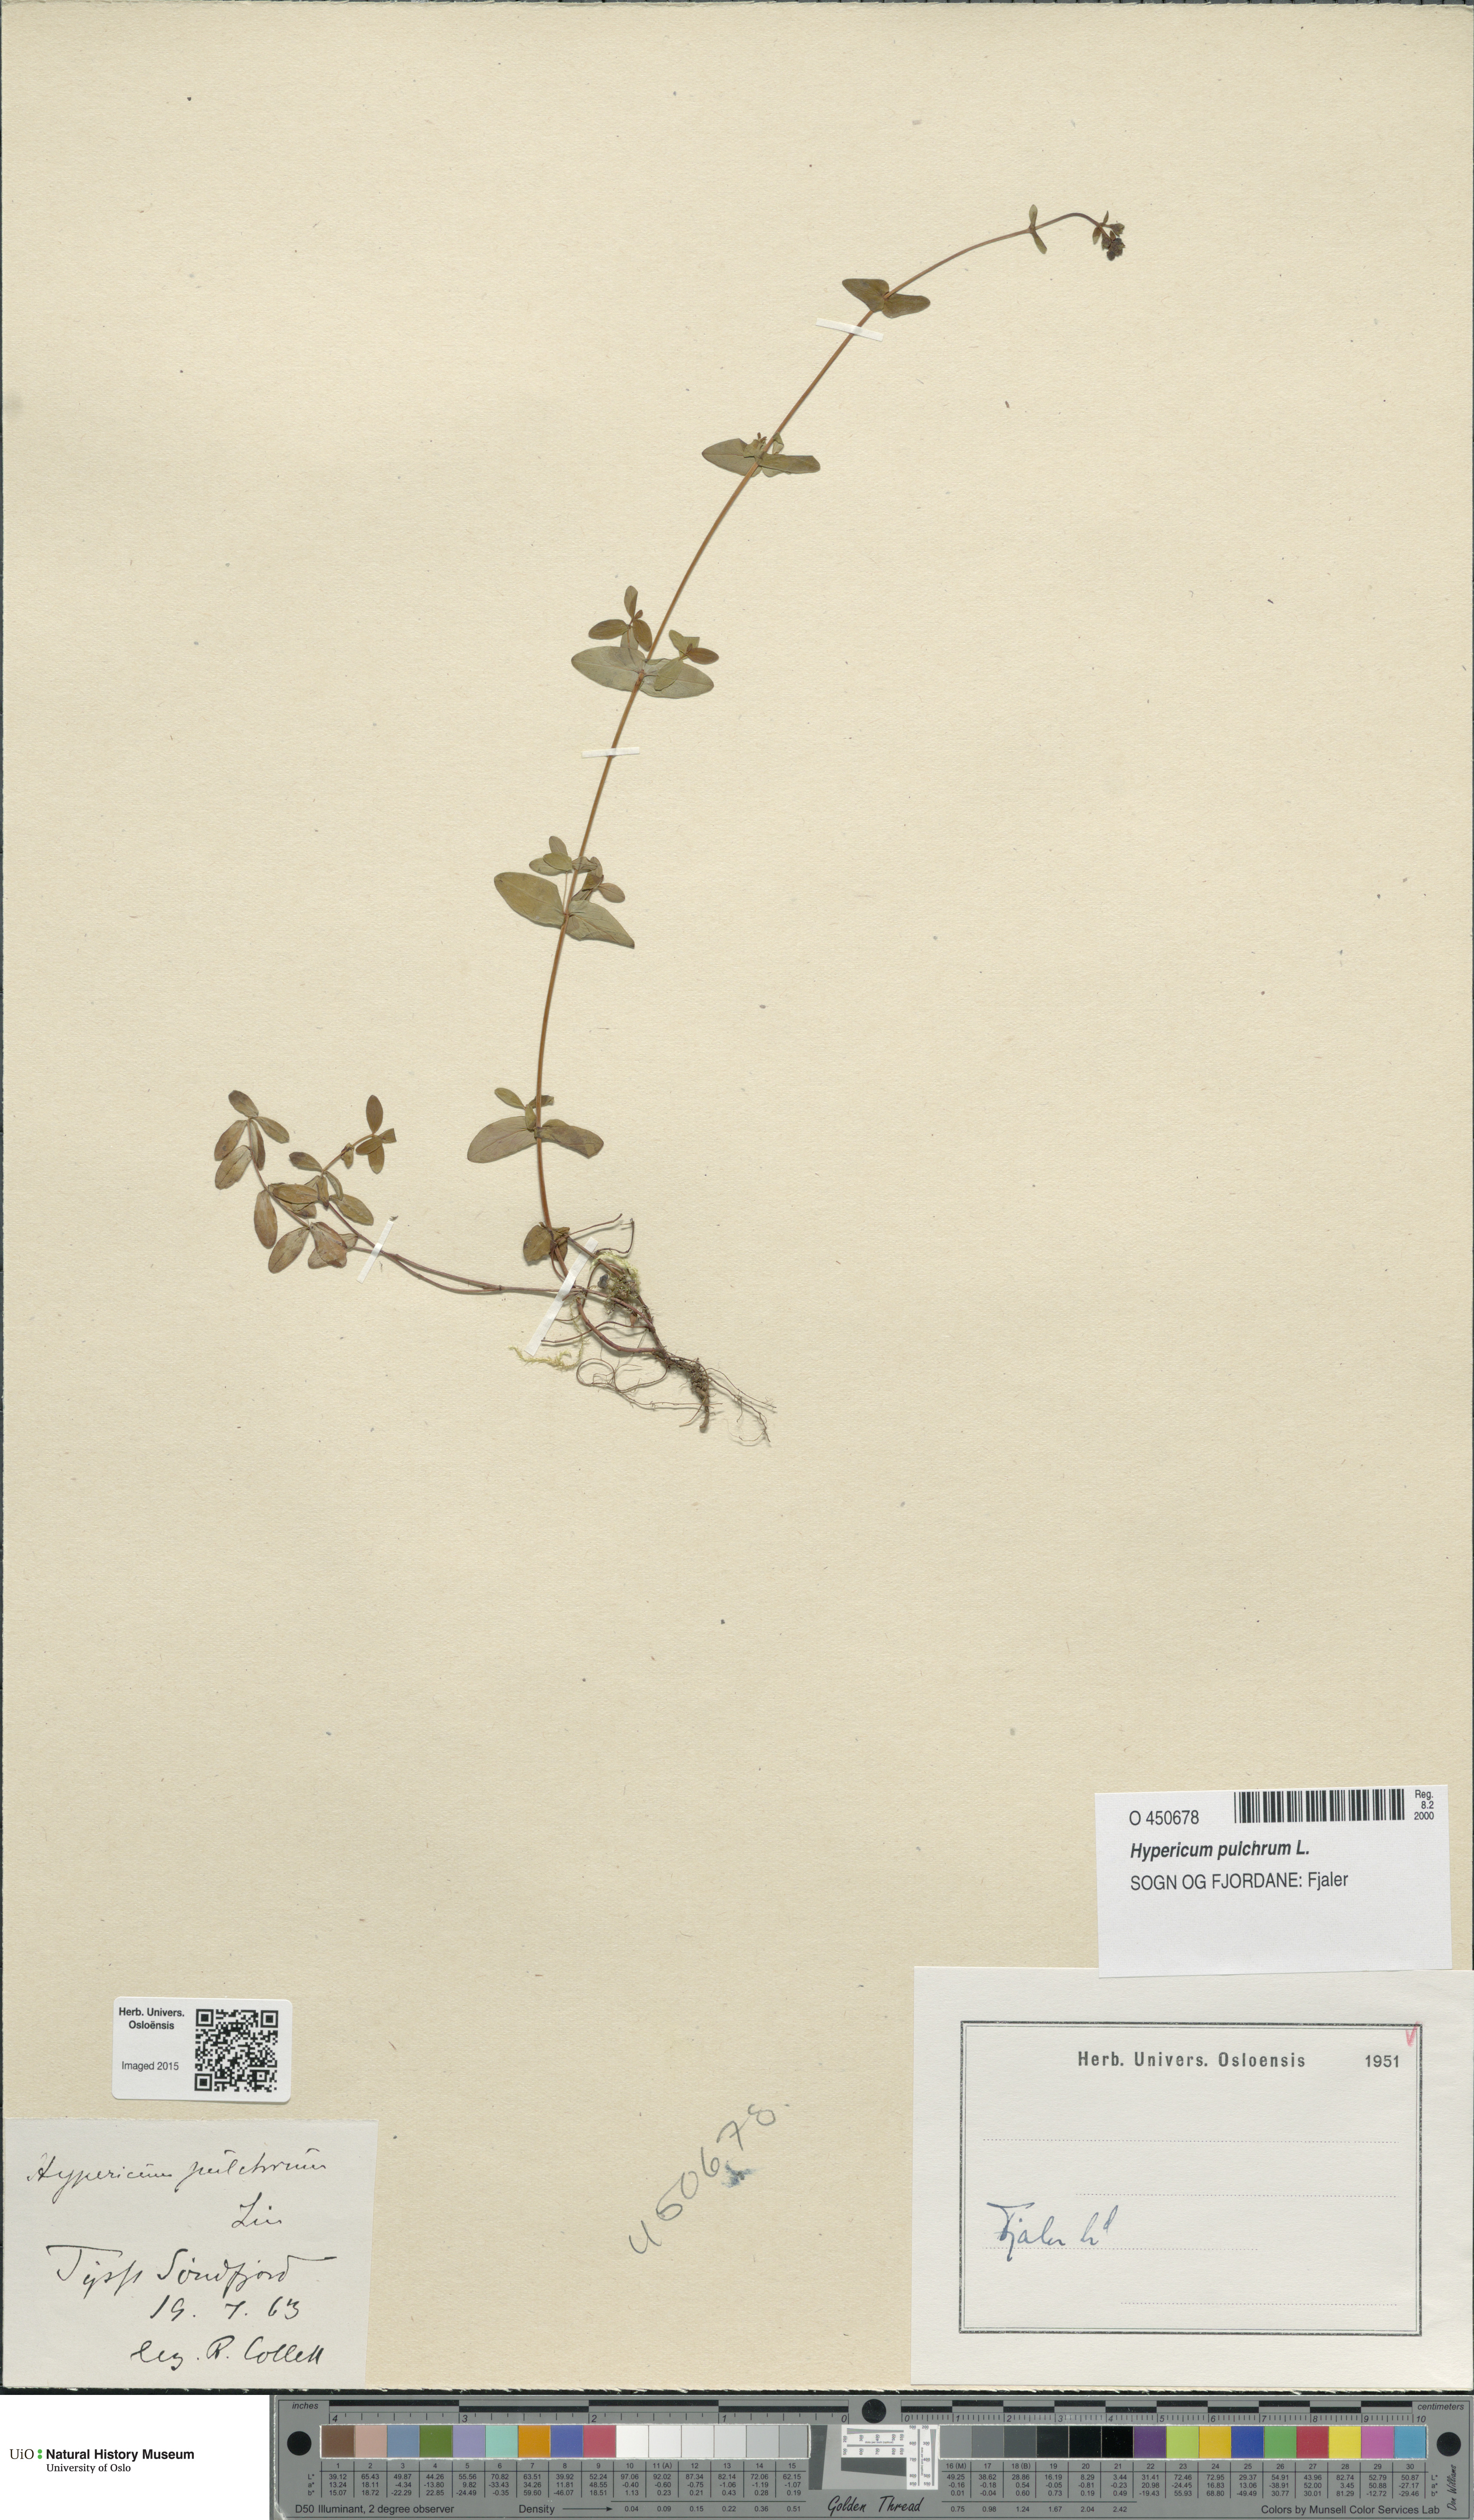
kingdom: Plantae
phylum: Tracheophyta
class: Magnoliopsida
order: Malpighiales
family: Hypericaceae
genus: Hypericum
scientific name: Hypericum pulchrum
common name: Slender st. john's-wort
